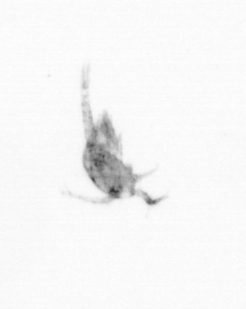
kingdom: Animalia
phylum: Arthropoda
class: Copepoda
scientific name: Copepoda
